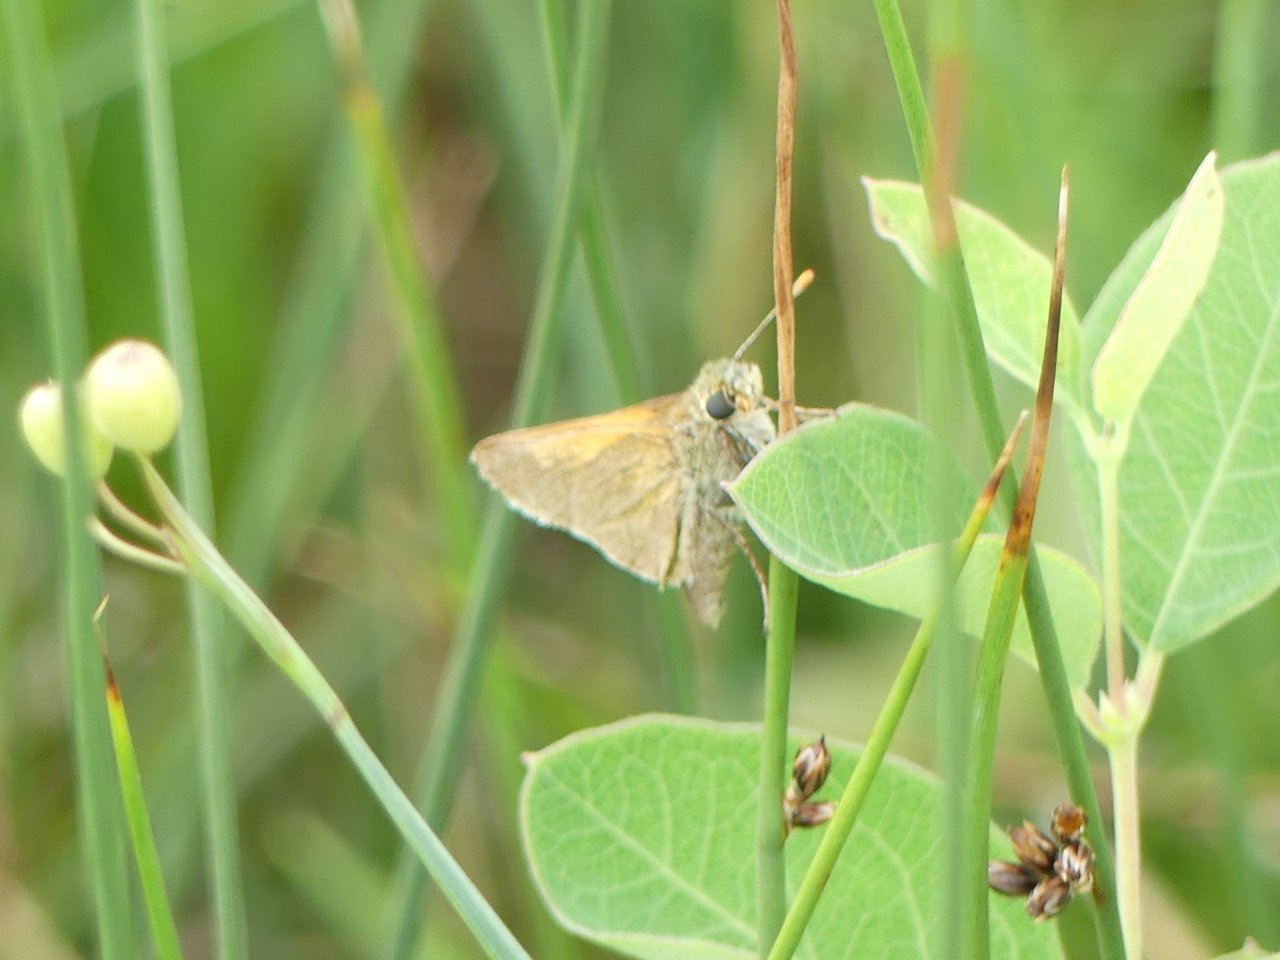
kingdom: Animalia
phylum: Arthropoda
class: Insecta
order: Lepidoptera
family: Hesperiidae
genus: Polites
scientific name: Polites themistocles
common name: Tawny-edged Skipper
